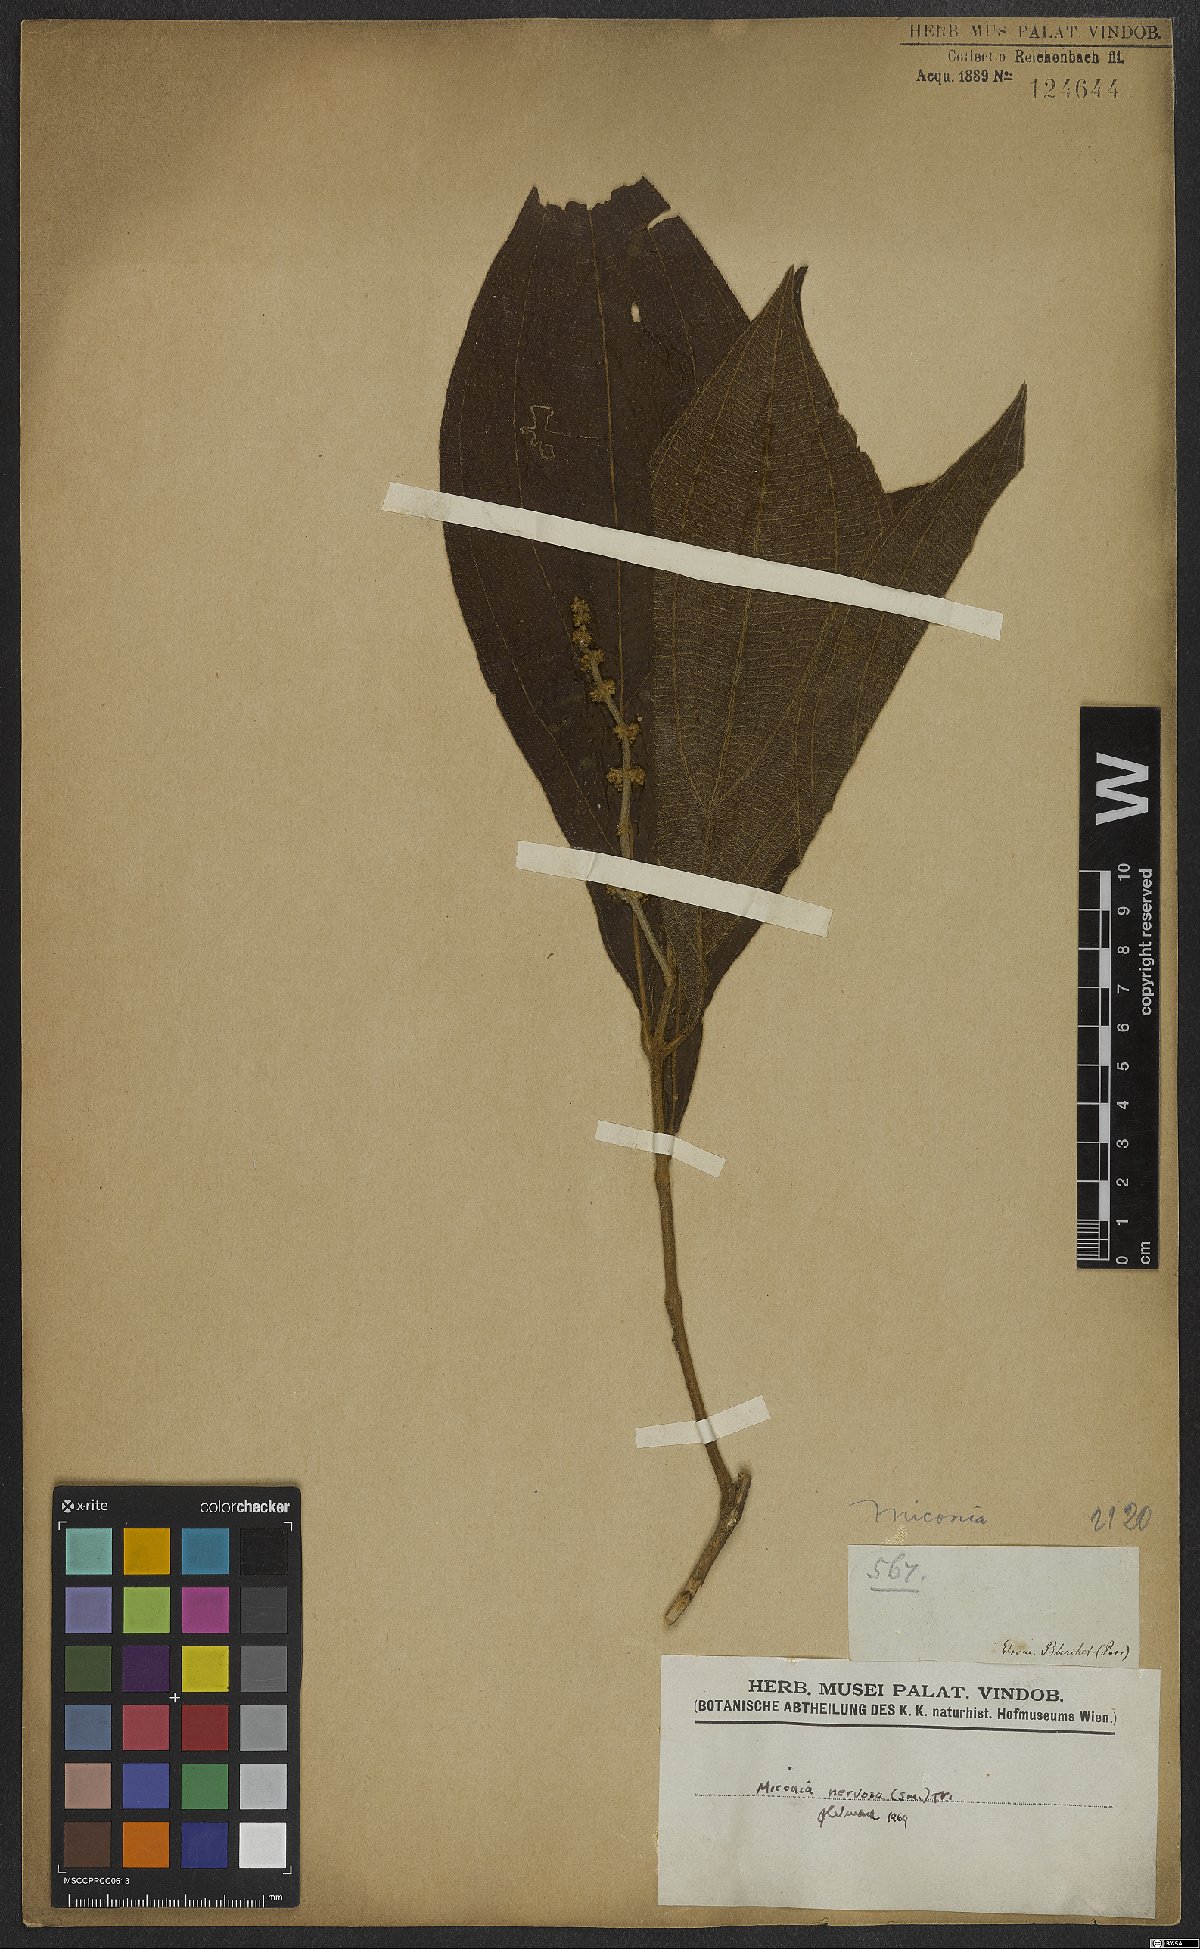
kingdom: Plantae
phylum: Tracheophyta
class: Magnoliopsida
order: Myrtales
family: Melastomataceae
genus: Miconia
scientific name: Miconia nervosa
